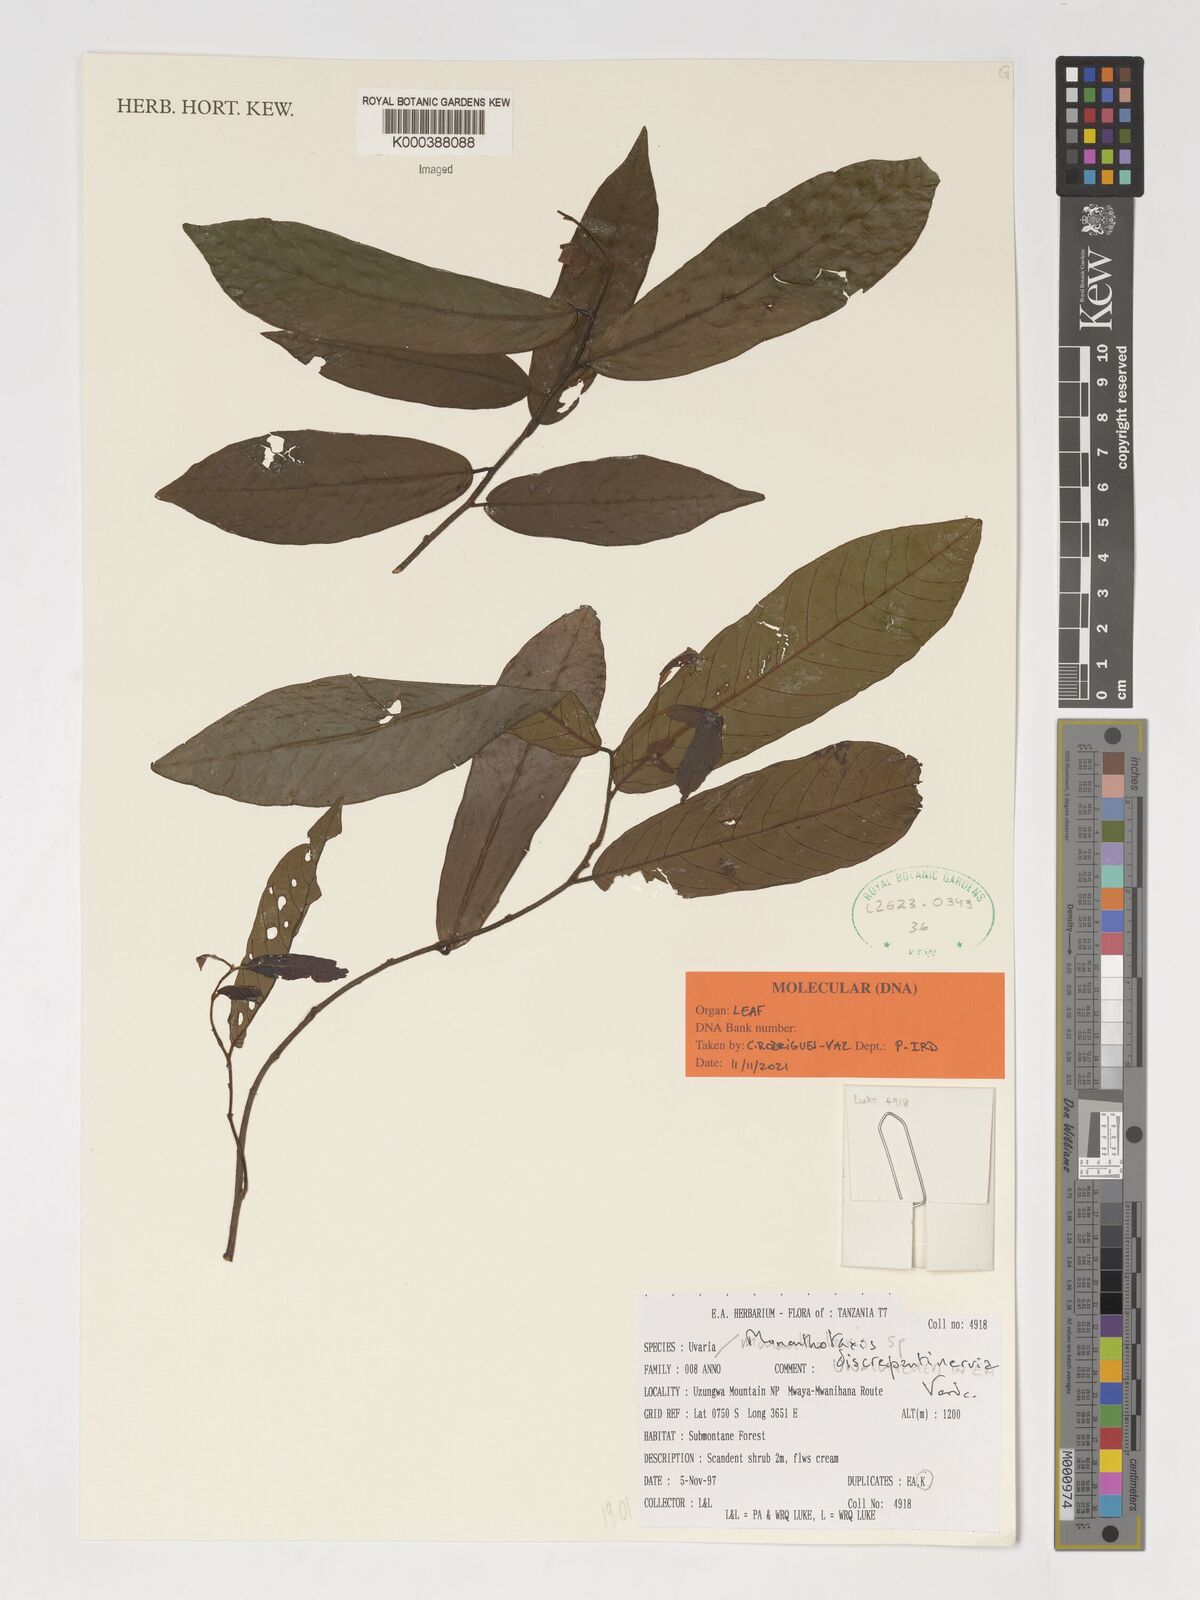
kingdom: Plantae
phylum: Tracheophyta
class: Magnoliopsida
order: Magnoliales
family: Annonaceae
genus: Monanthotaxis
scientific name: Monanthotaxis discrepantinervia
